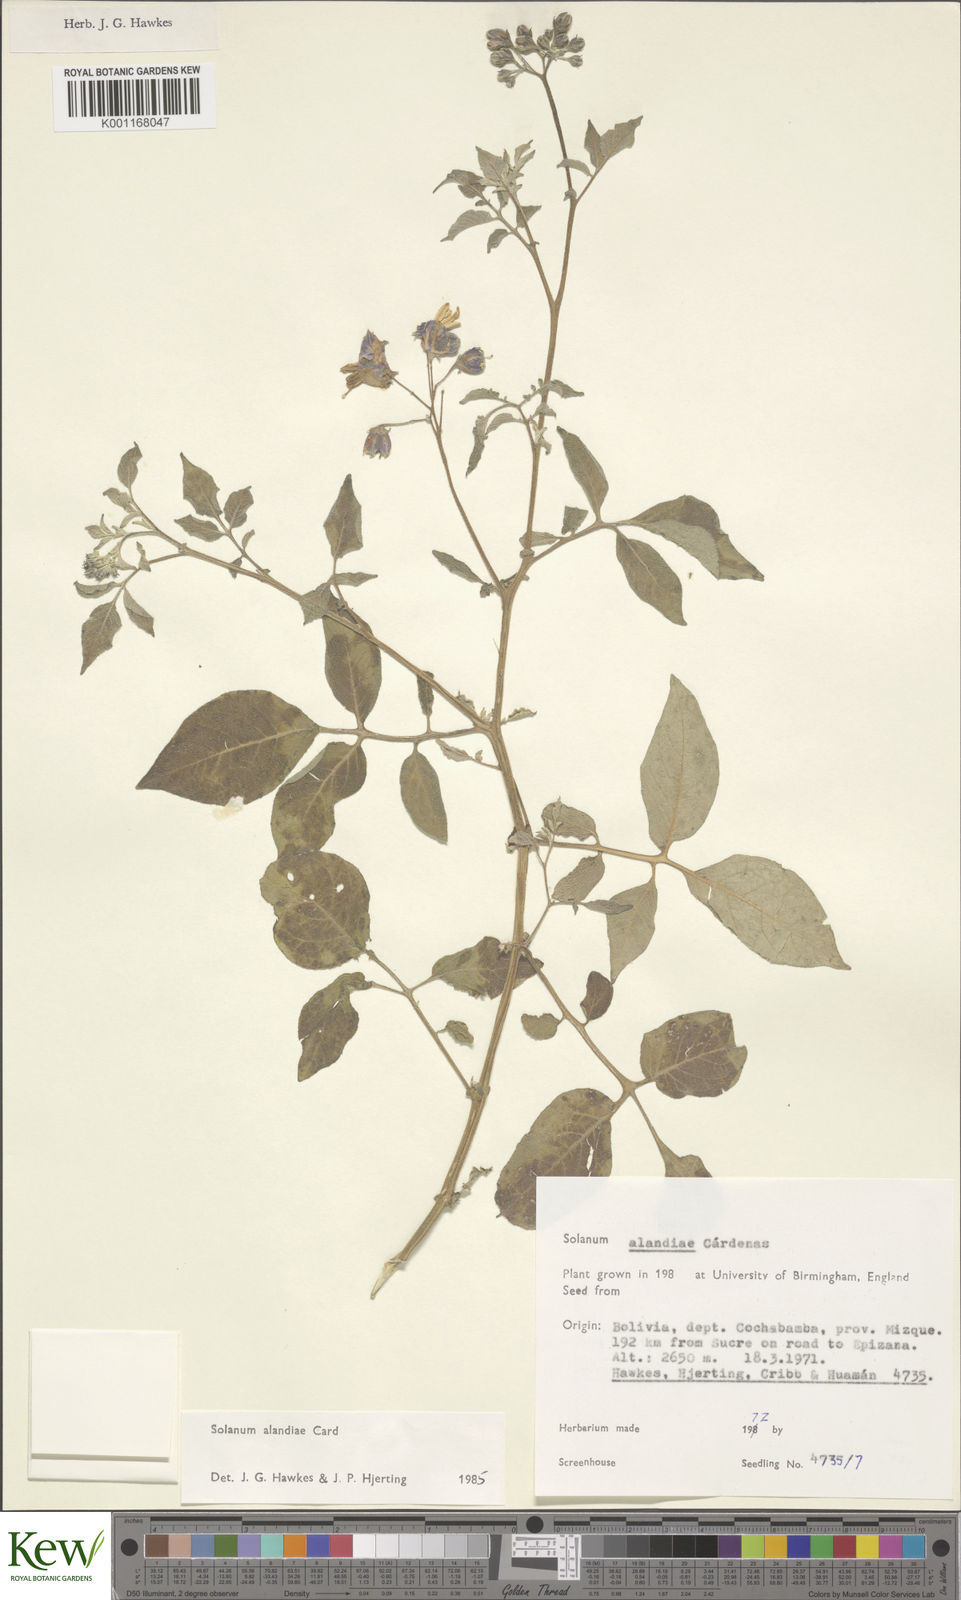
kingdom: Plantae
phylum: Tracheophyta
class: Magnoliopsida
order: Solanales
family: Solanaceae
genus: Solanum
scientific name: Solanum
